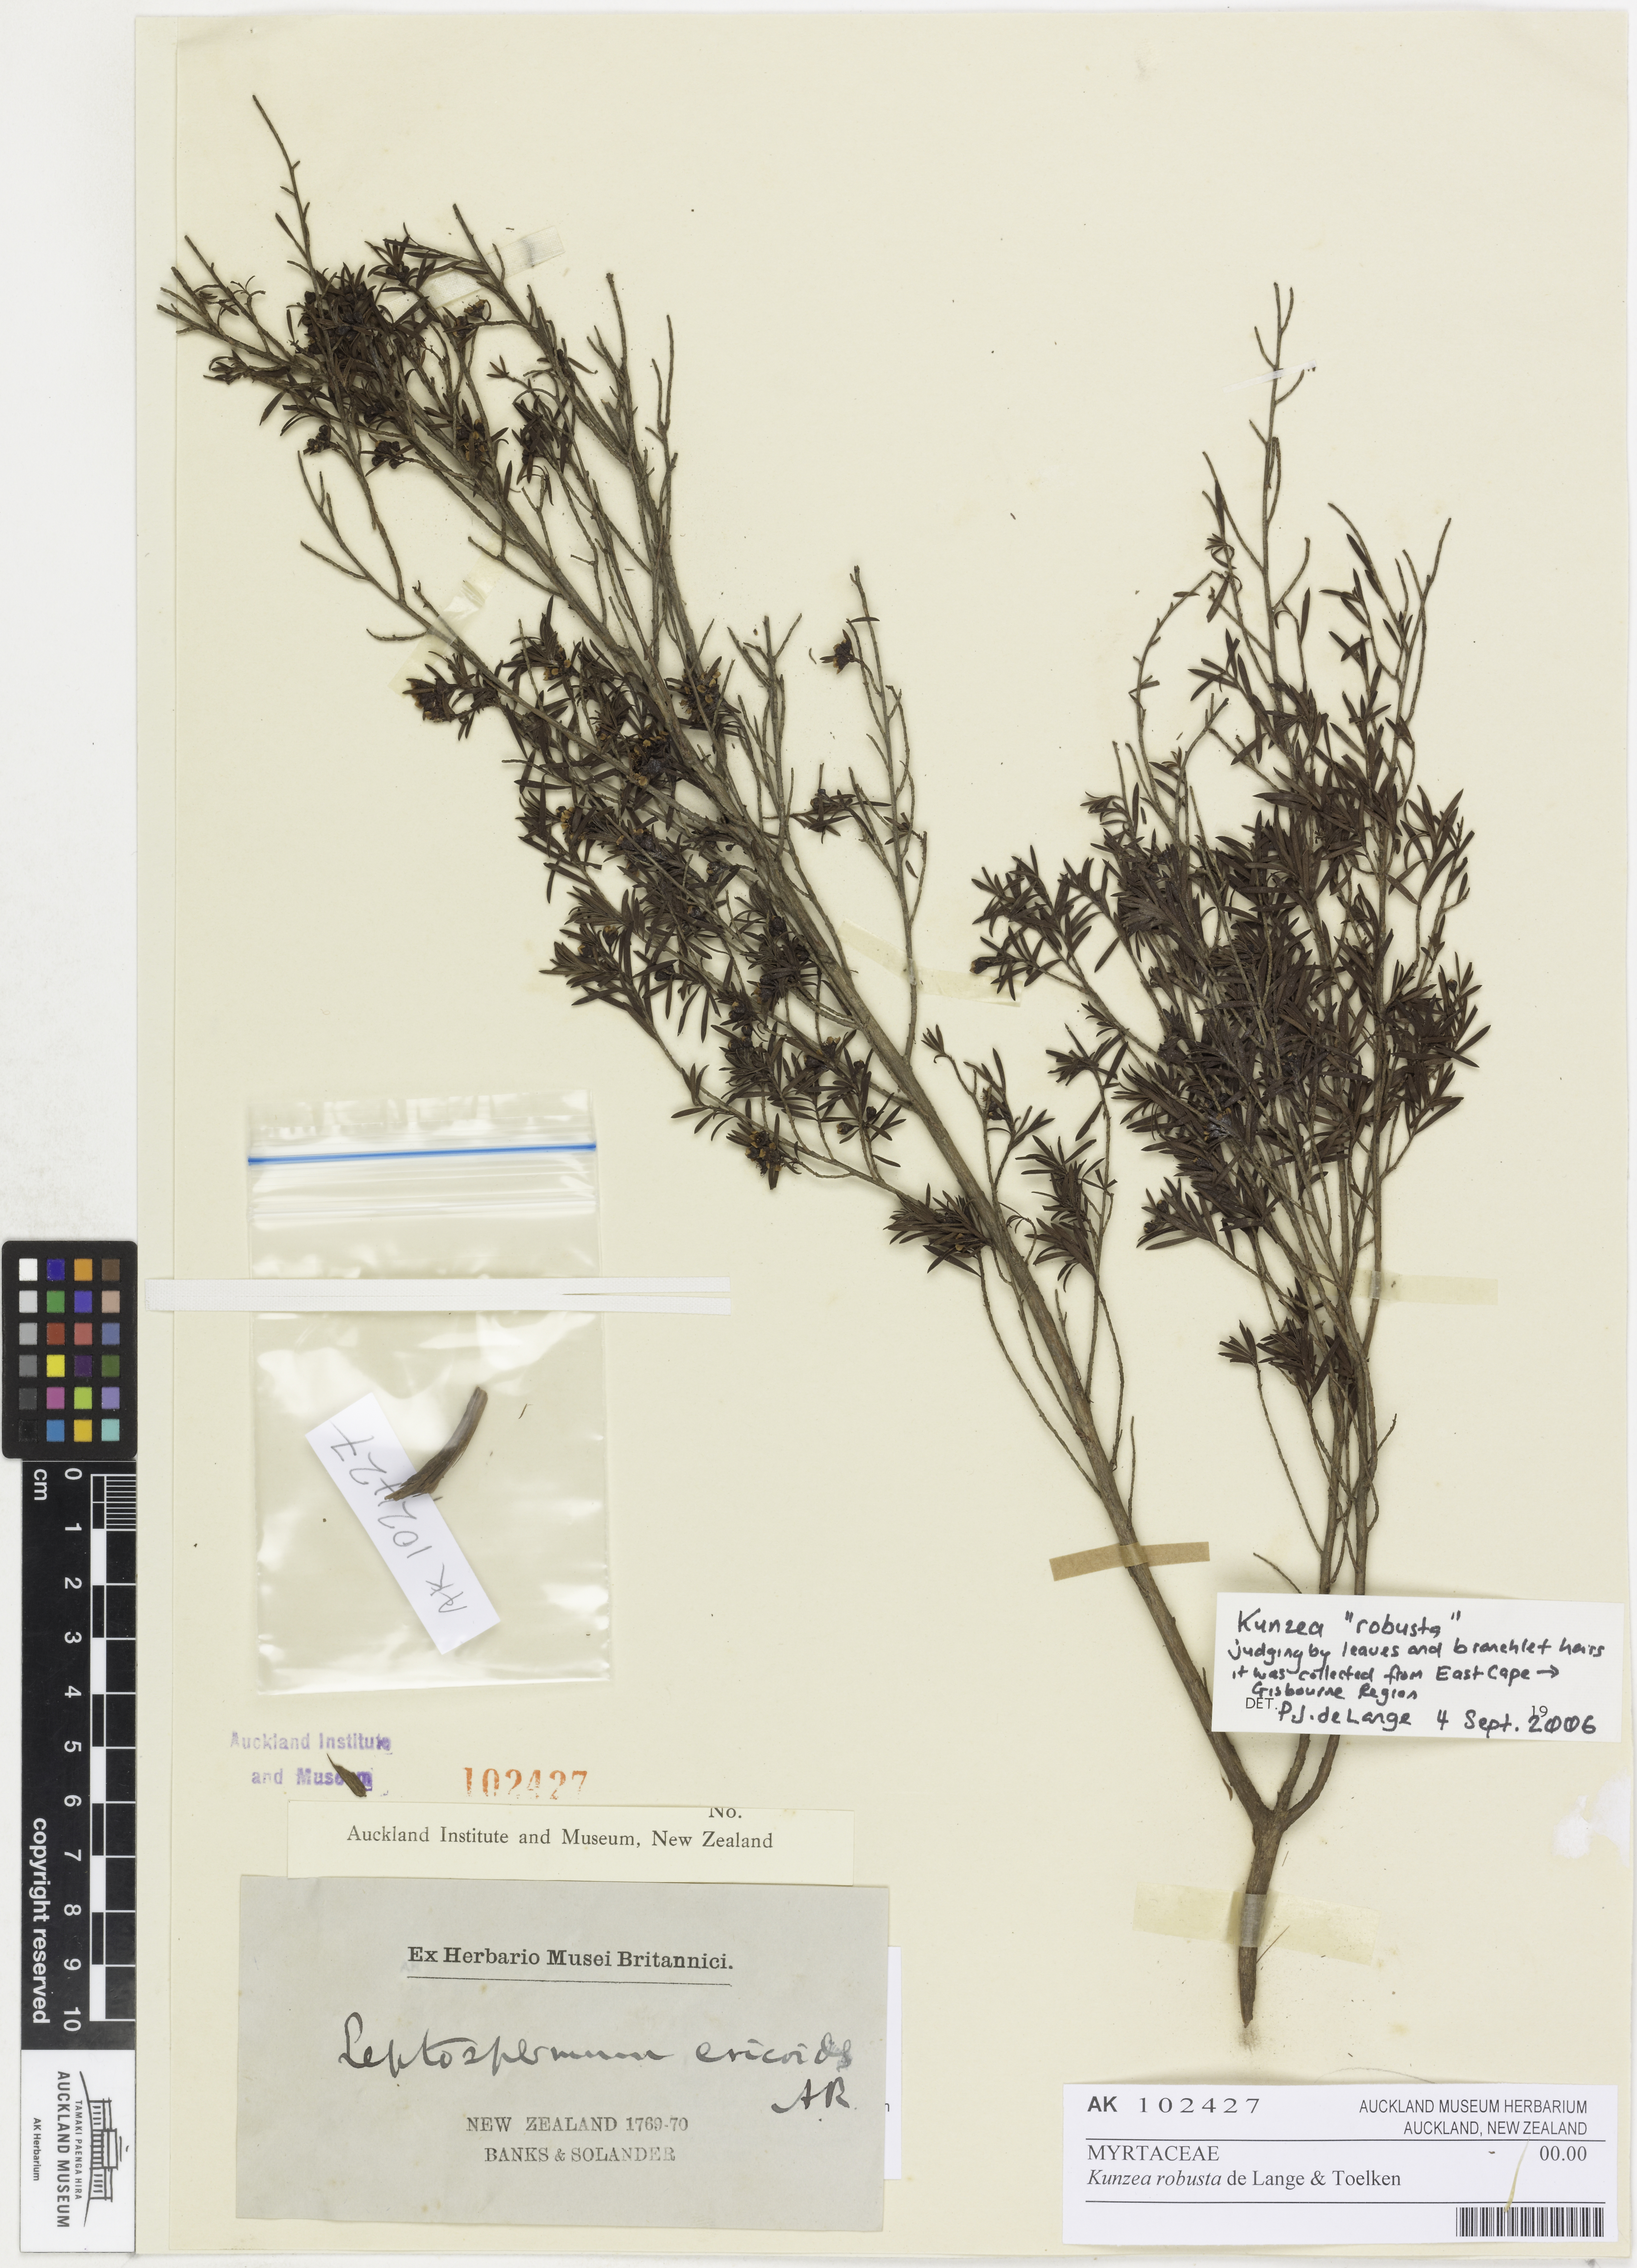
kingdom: Plantae
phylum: Tracheophyta
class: Magnoliopsida
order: Myrtales
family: Myrtaceae
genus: Kunzea
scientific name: Kunzea robusta
